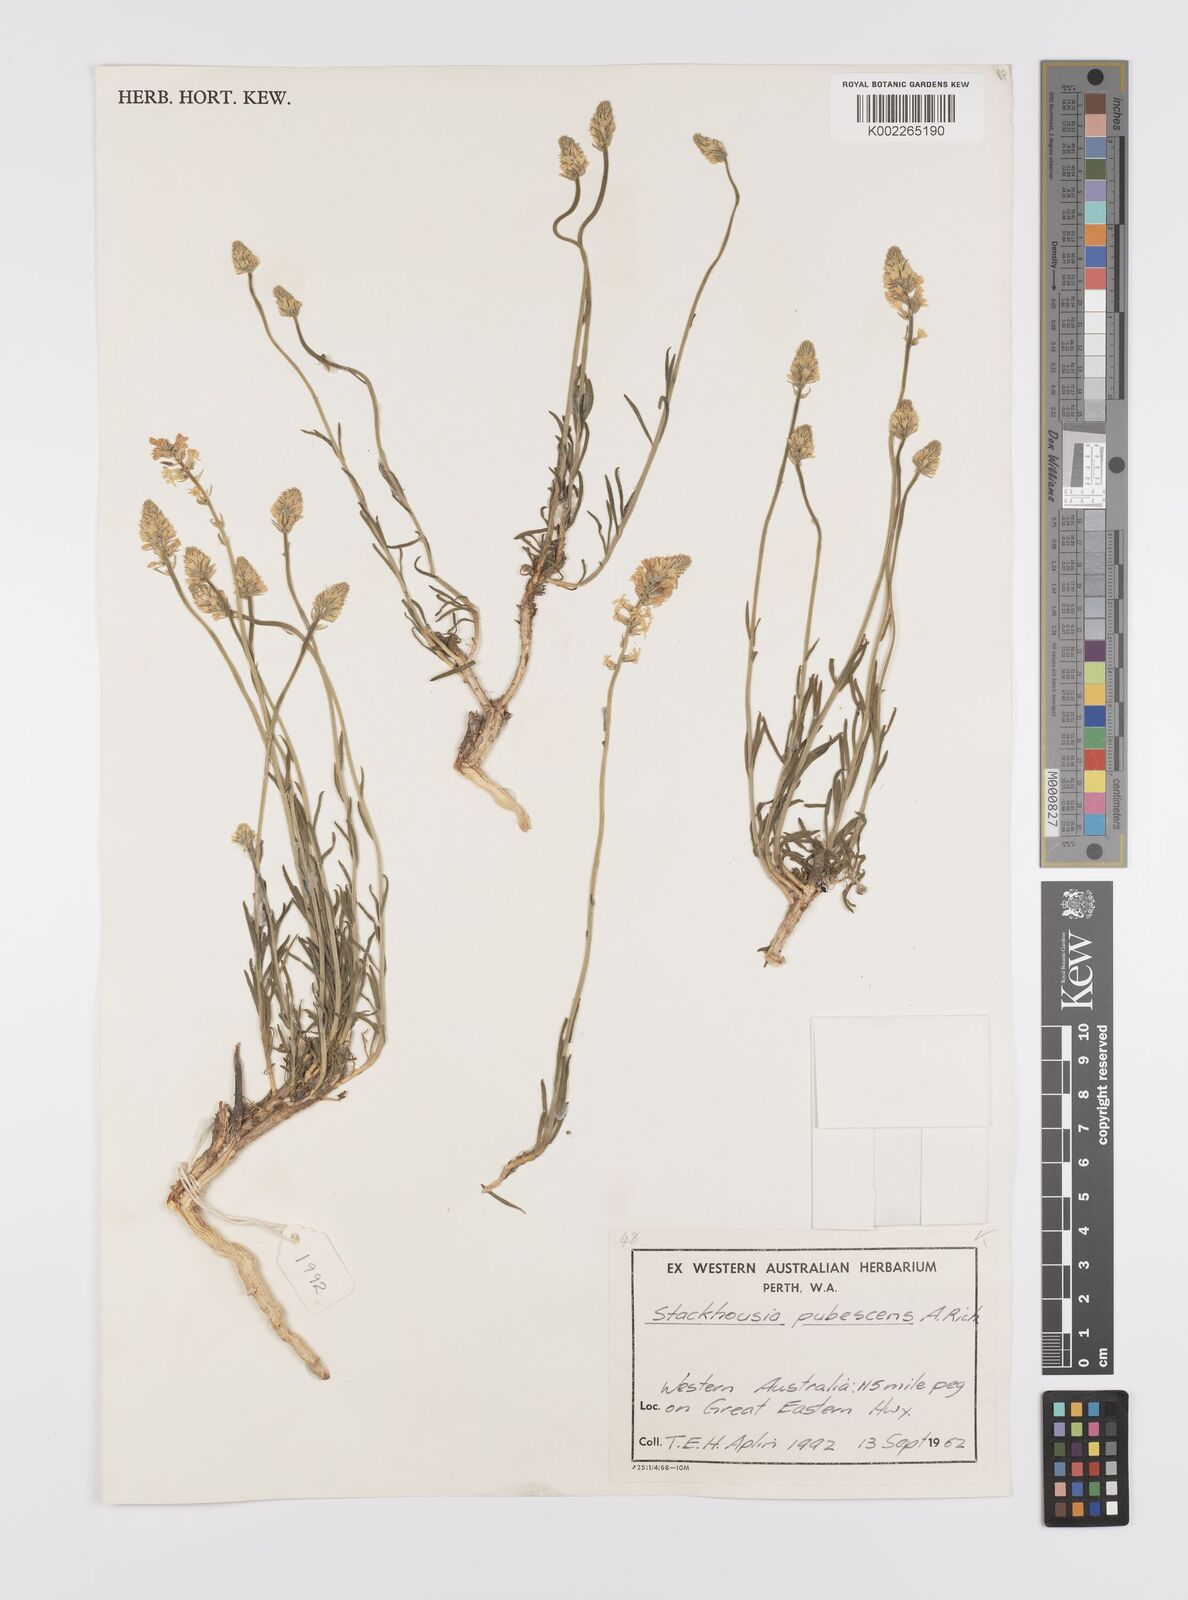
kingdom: Plantae
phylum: Tracheophyta
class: Magnoliopsida
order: Celastrales
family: Celastraceae
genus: Stackhousia
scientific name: Stackhousia monogyna
